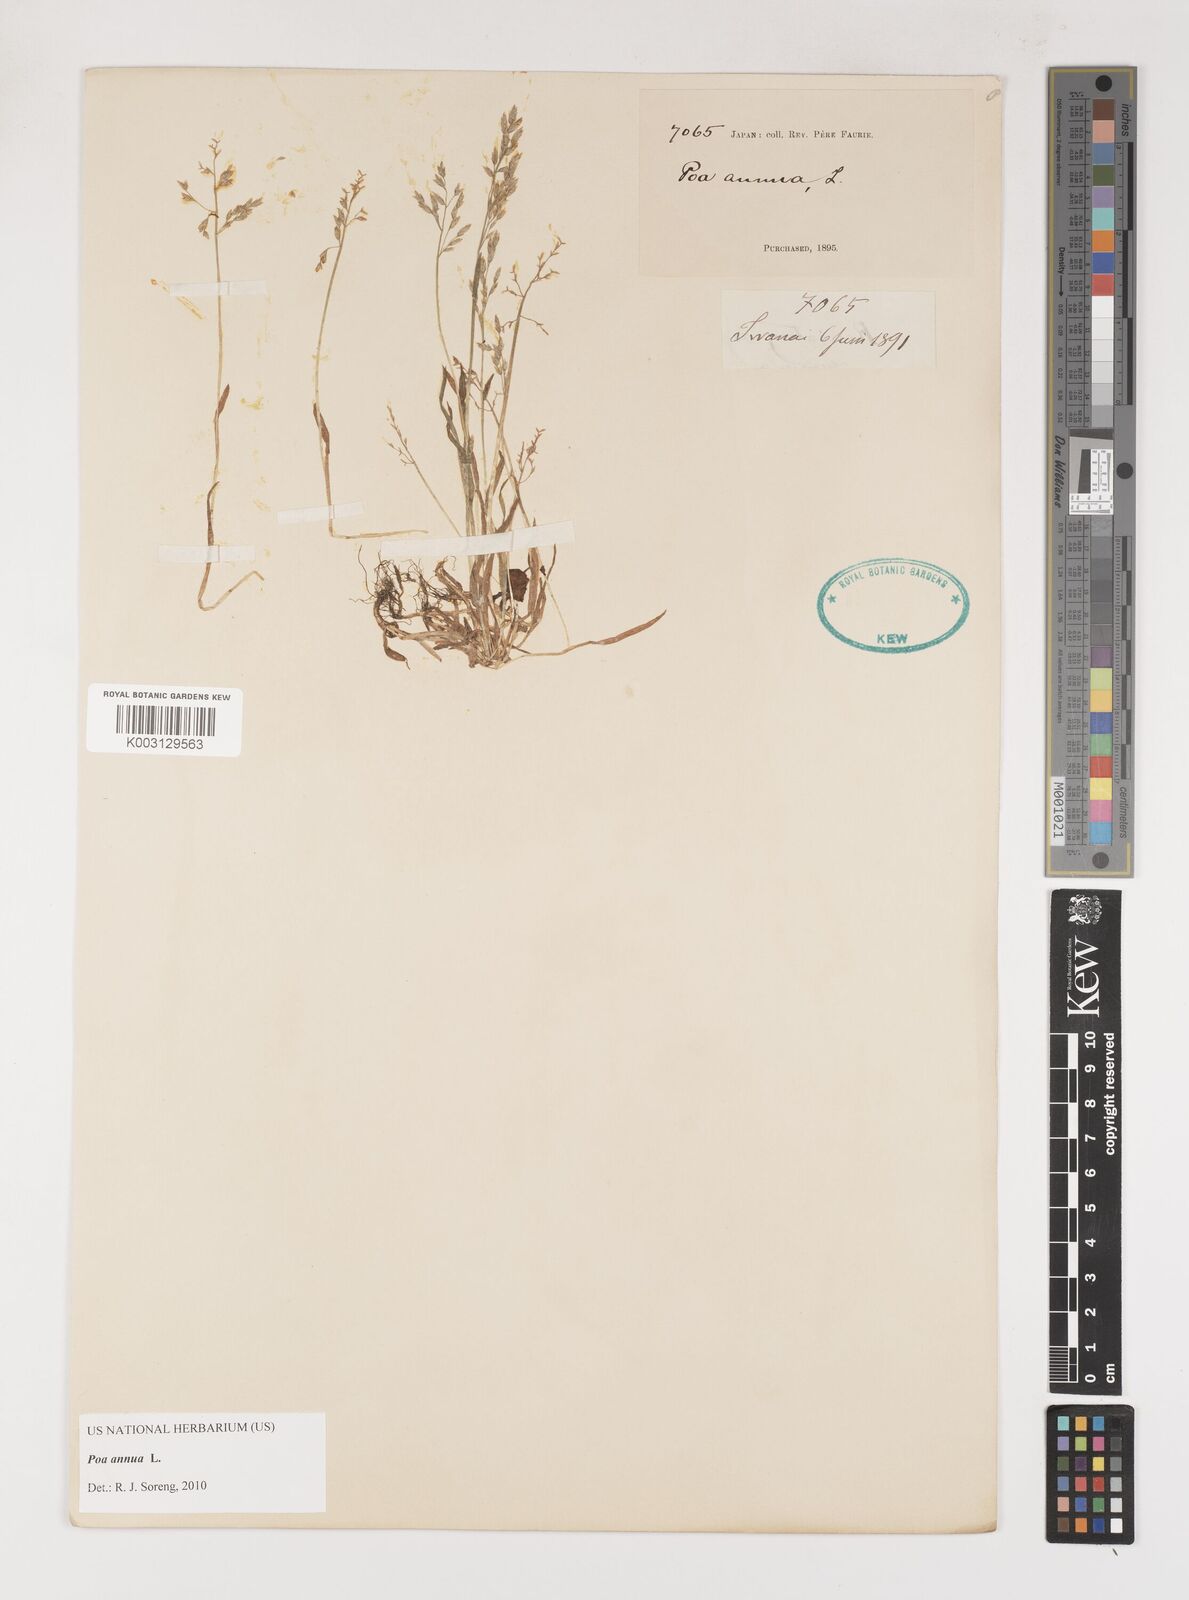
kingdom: Plantae
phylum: Tracheophyta
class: Liliopsida
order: Poales
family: Poaceae
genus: Poa
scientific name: Poa annua
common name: Annual bluegrass
